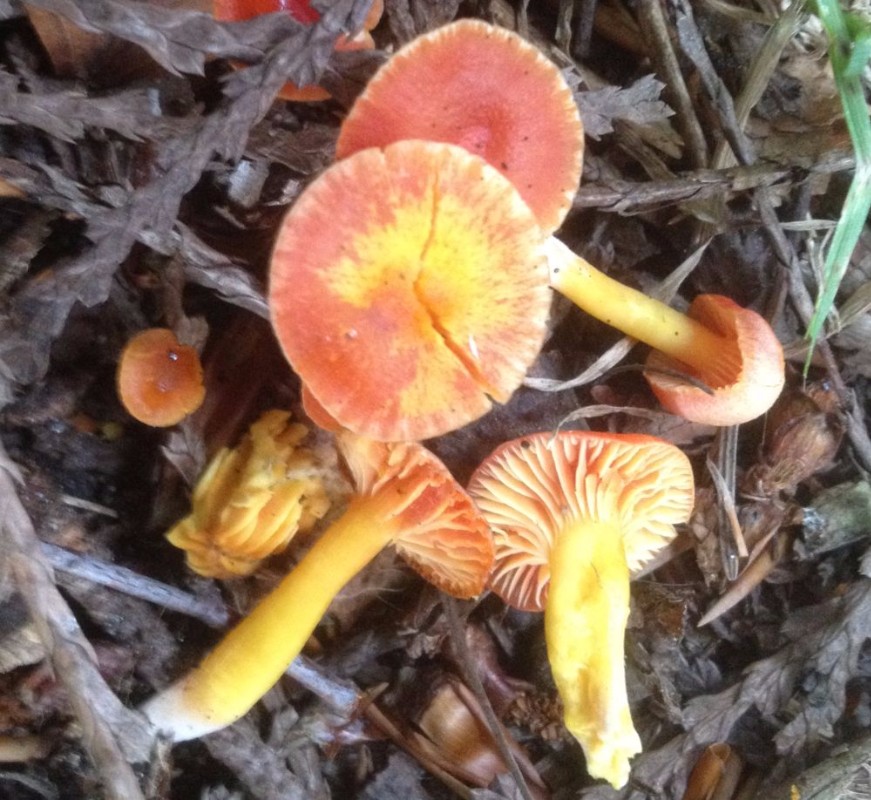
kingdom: Fungi
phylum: Basidiomycota
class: Agaricomycetes
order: Agaricales
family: Hygrophoraceae
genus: Hygrocybe
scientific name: Hygrocybe
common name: vokshat
